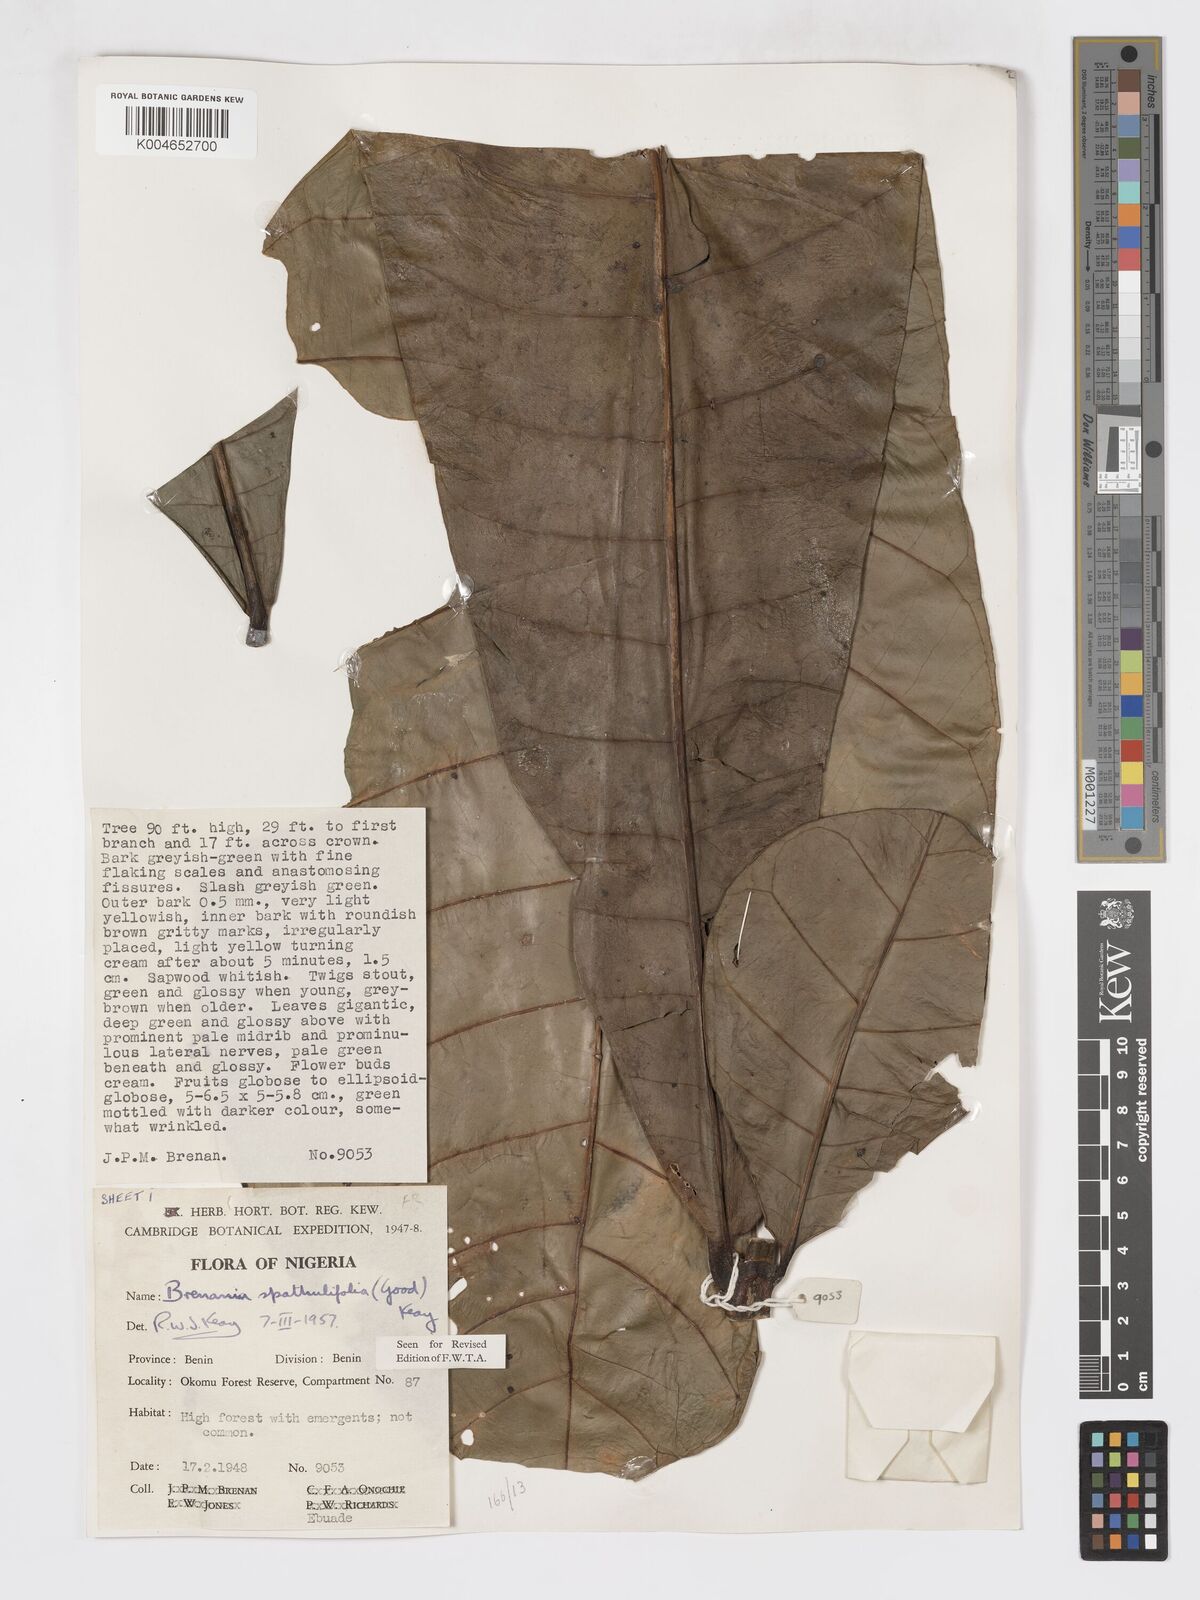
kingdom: Plantae
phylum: Tracheophyta
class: Magnoliopsida
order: Gentianales
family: Rubiaceae
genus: Brenania
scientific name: Brenania brieyi
